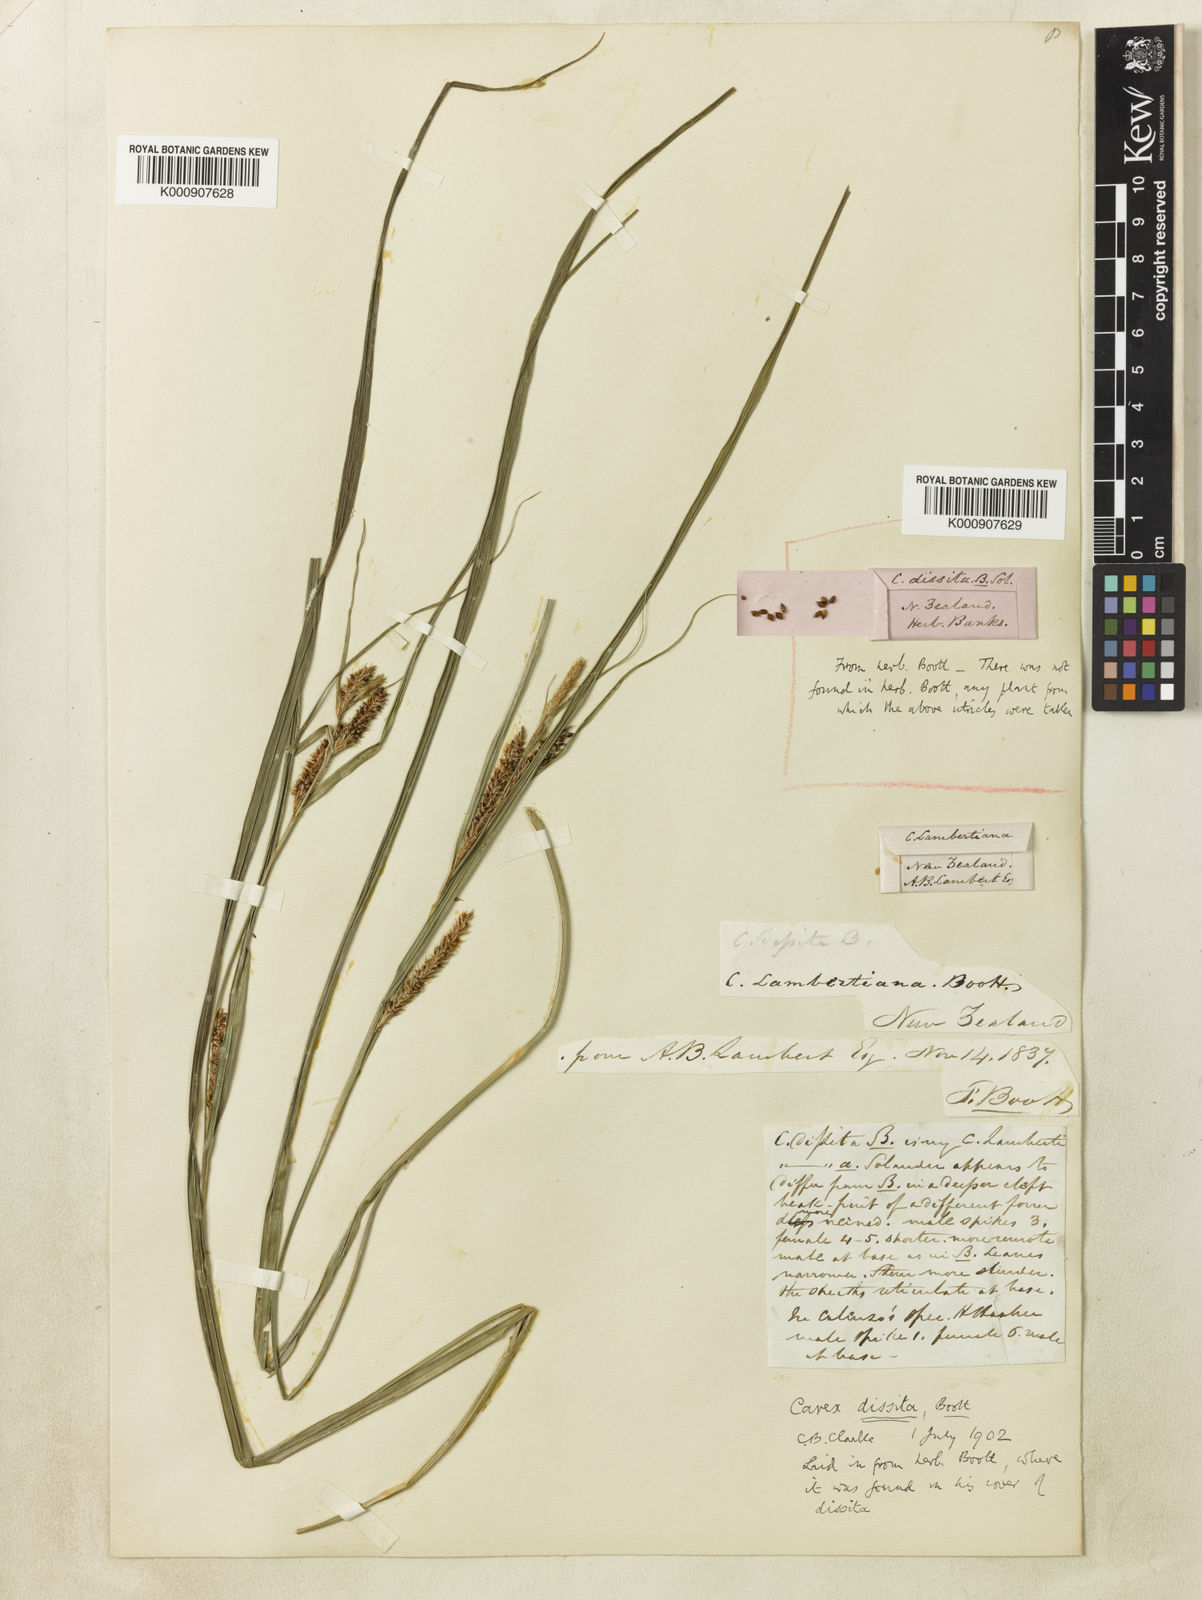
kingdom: Plantae
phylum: Tracheophyta
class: Liliopsida
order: Poales
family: Cyperaceae
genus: Carex
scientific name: Carex dissita
